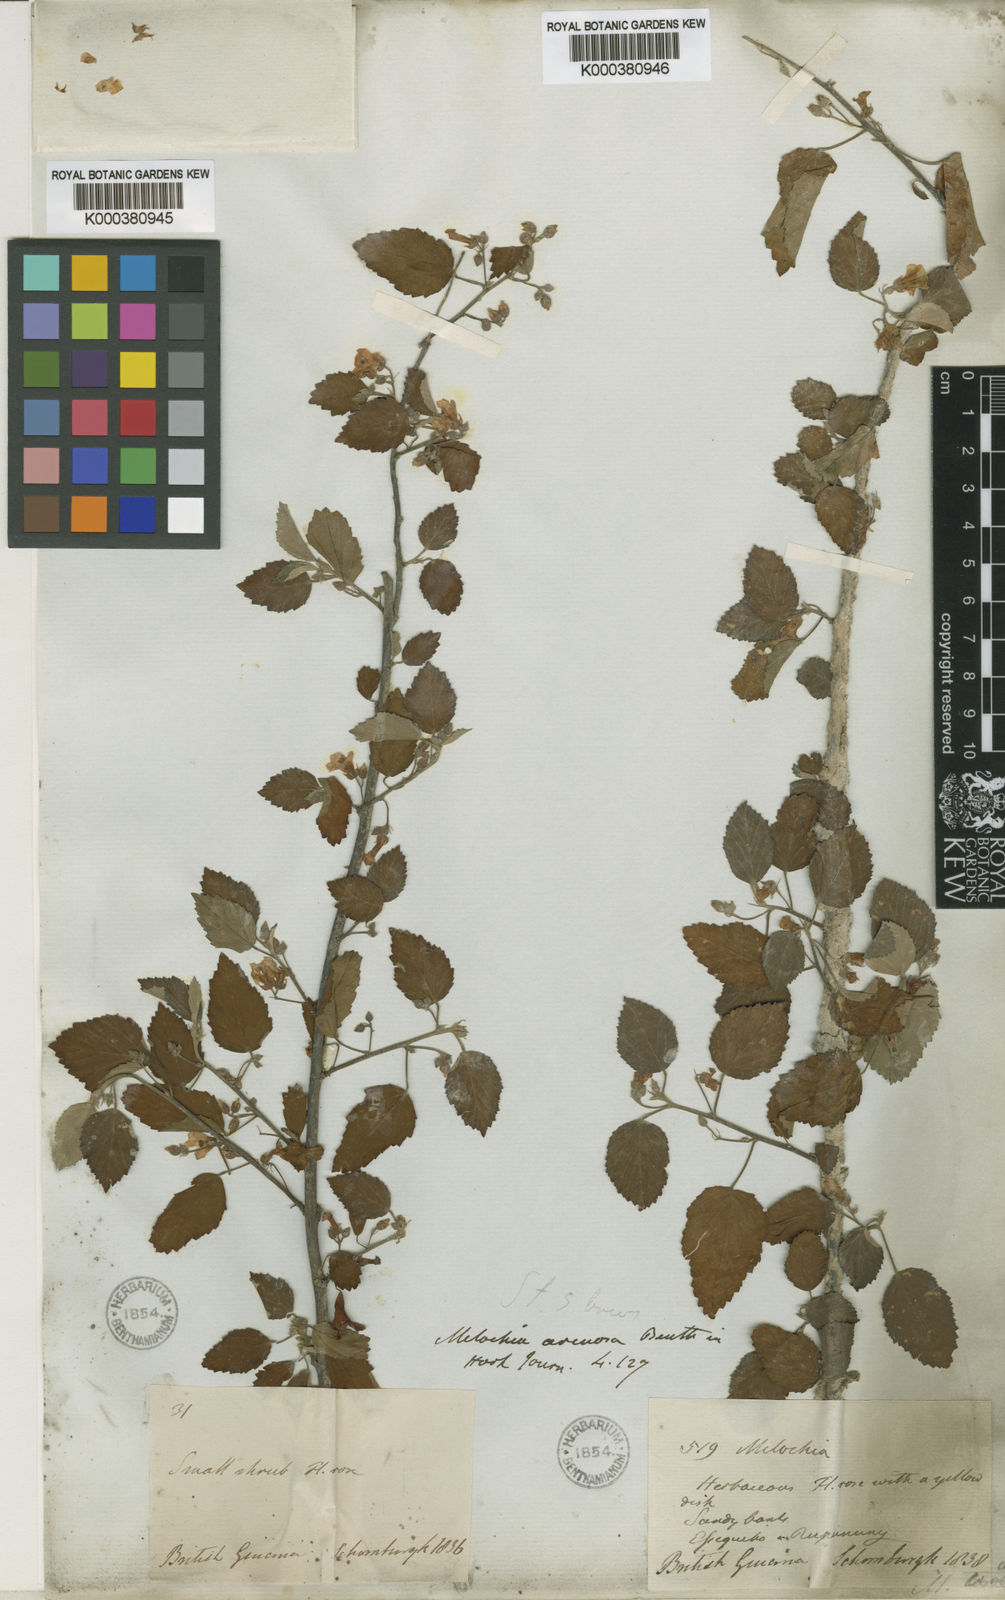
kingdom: Plantae
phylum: Tracheophyta
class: Magnoliopsida
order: Malvales
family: Malvaceae
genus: Melochia
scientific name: Melochia arenosa
